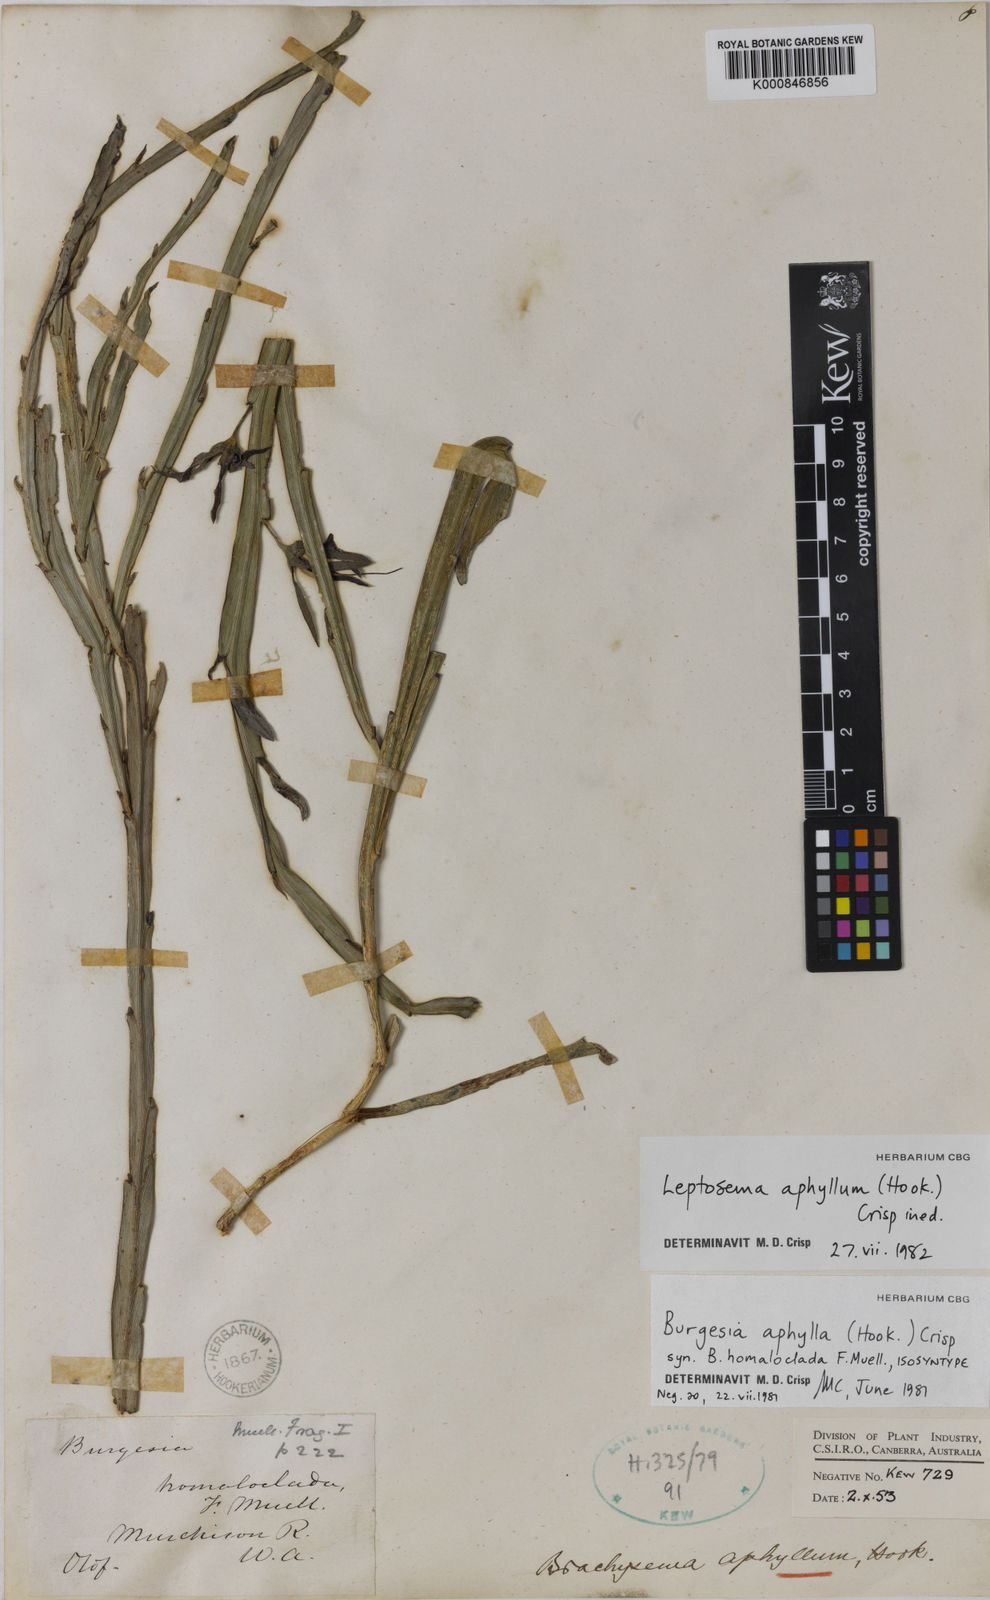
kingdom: Plantae
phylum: Tracheophyta
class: Magnoliopsida
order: Fabales
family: Fabaceae
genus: Leptosema
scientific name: Leptosema aphyllum
